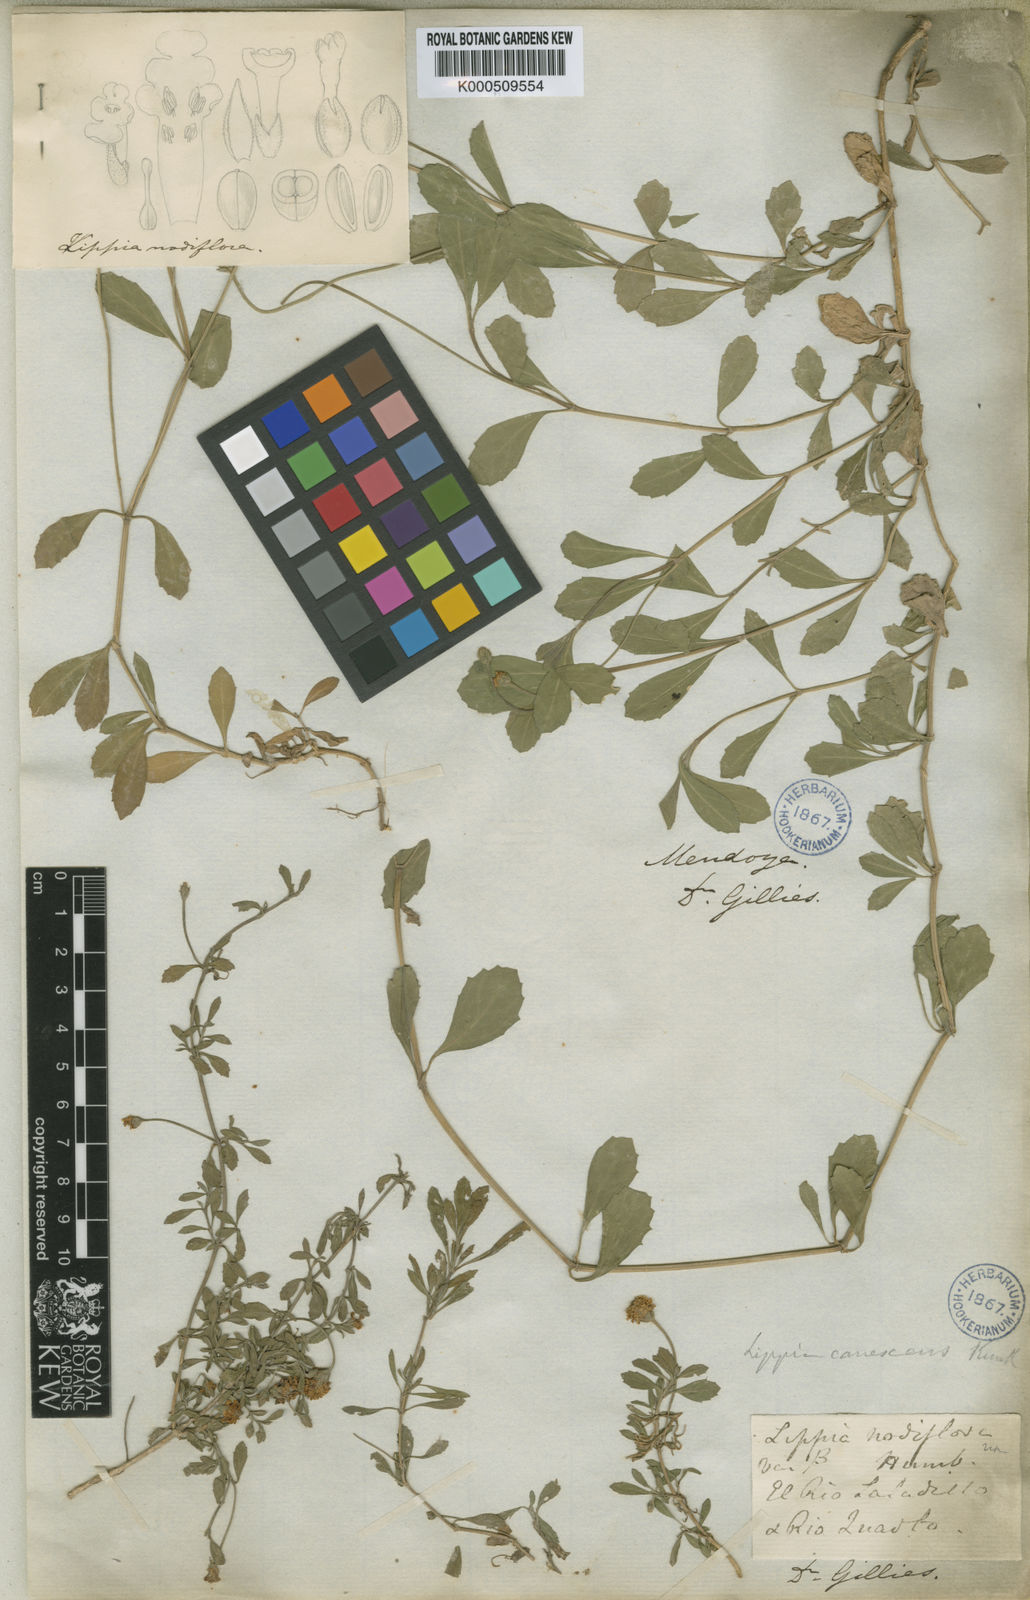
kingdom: Plantae
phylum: Tracheophyta
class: Magnoliopsida
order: Lamiales
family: Lamiaceae
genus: Scutellaria
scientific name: Scutellaria volubilis
